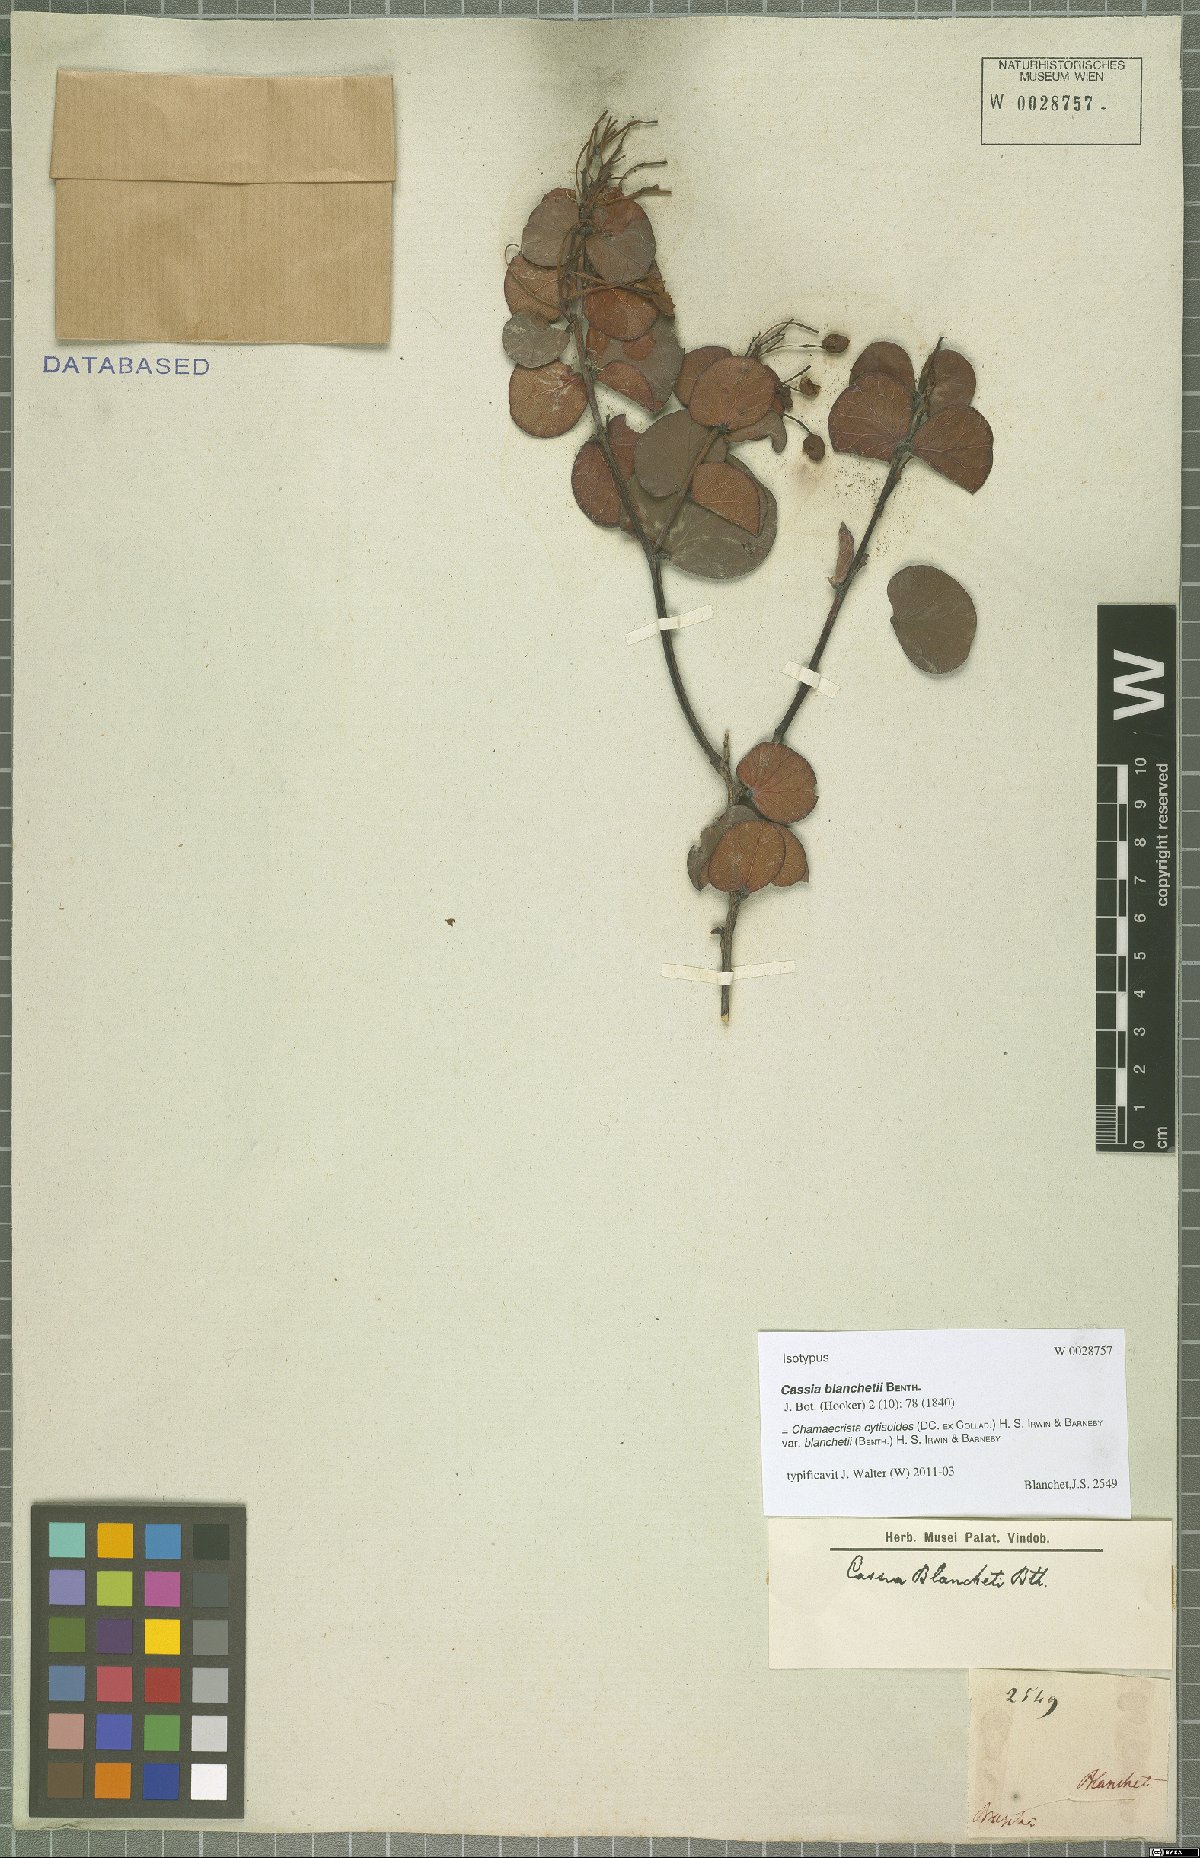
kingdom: Plantae
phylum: Tracheophyta
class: Magnoliopsida
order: Fabales
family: Fabaceae
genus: Chamaecrista
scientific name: Chamaecrista blanchetii
